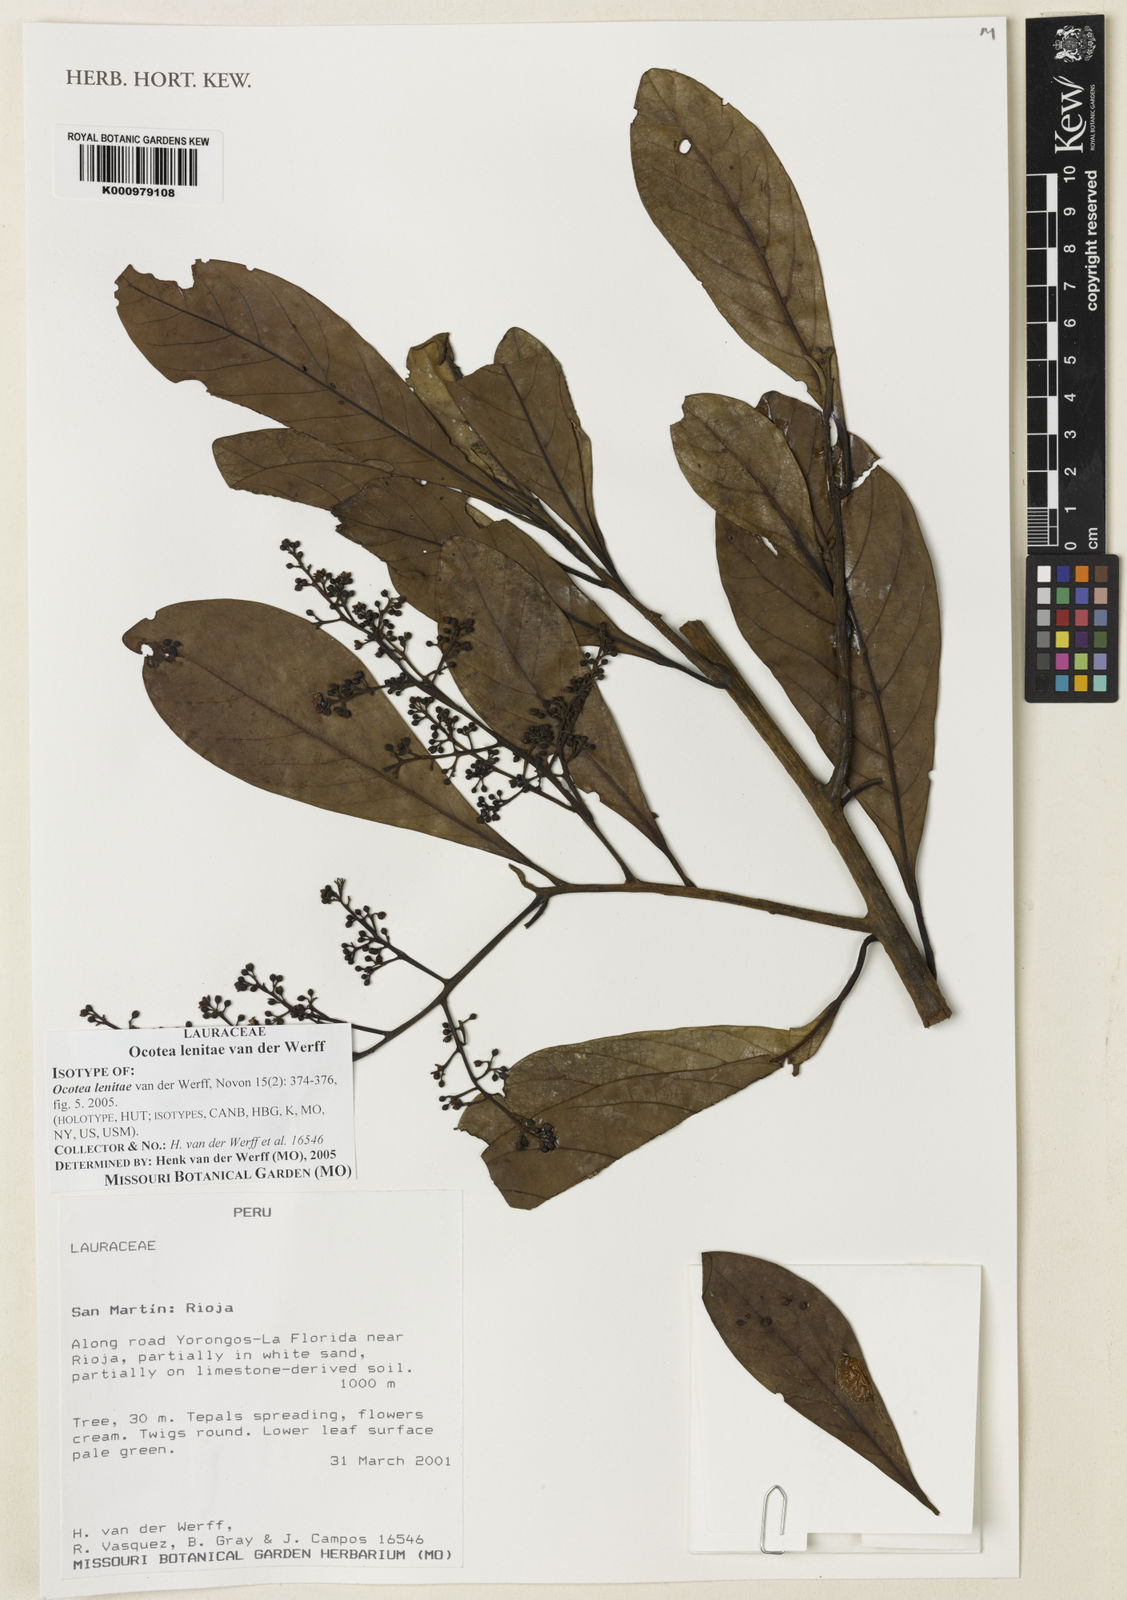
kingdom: Plantae
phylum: Tracheophyta
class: Magnoliopsida
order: Laurales
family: Lauraceae
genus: Ocotea
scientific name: Ocotea lenitae
